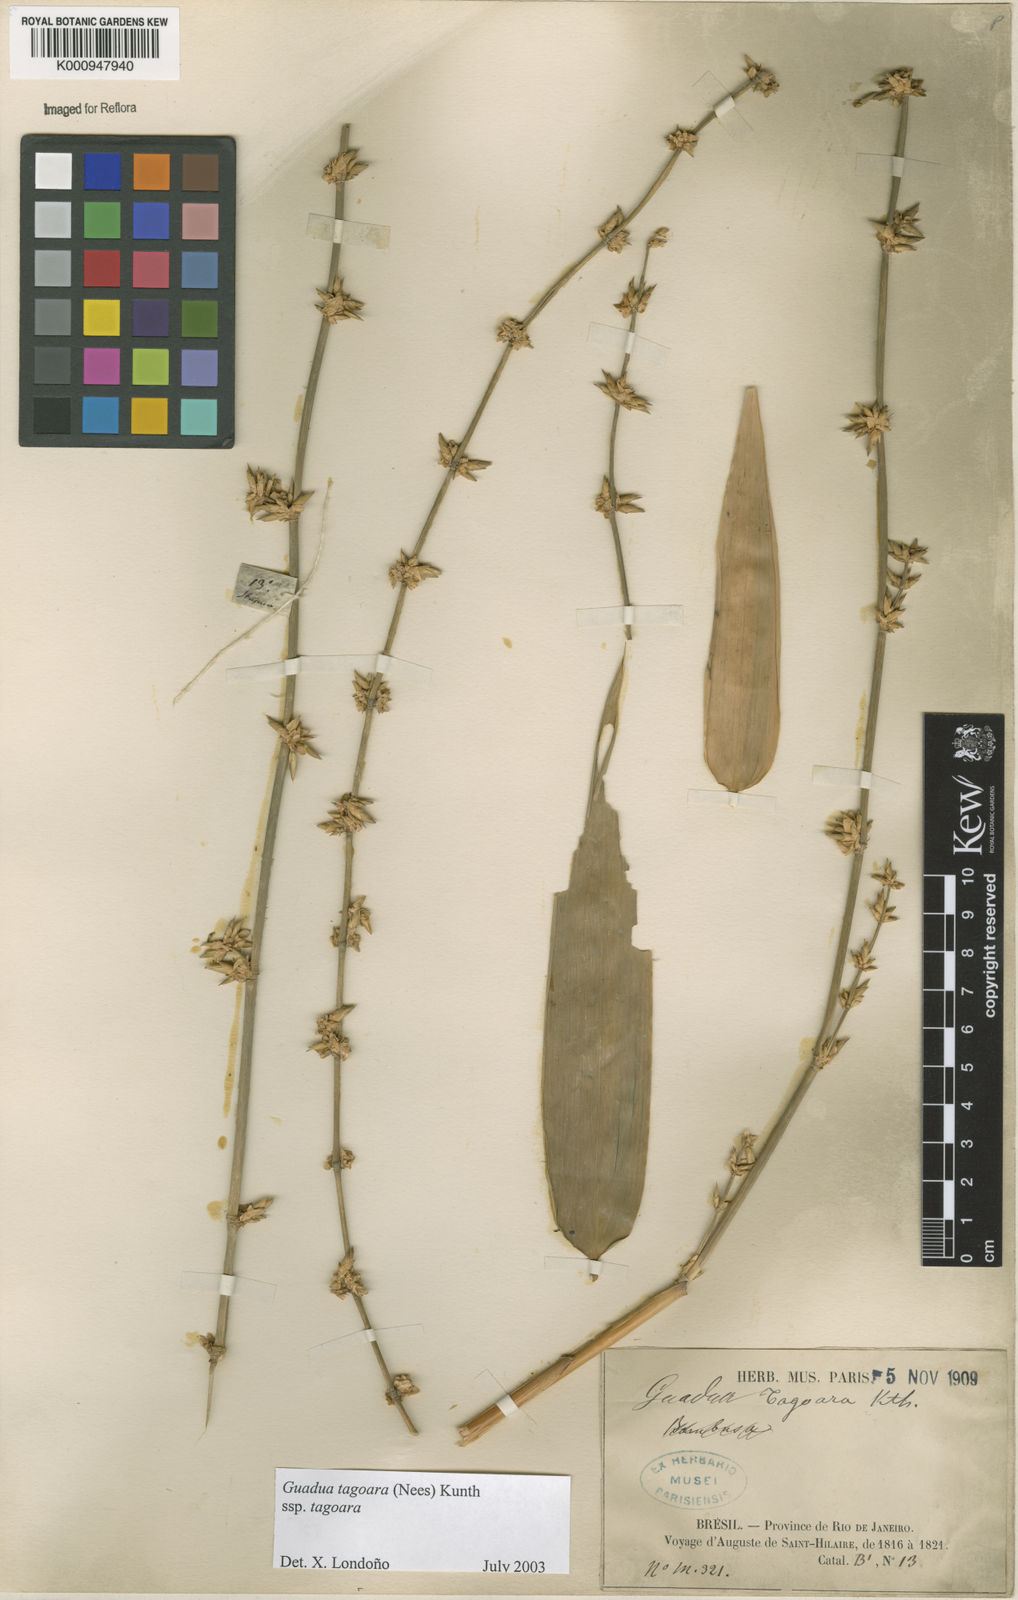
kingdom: Plantae
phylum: Tracheophyta
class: Liliopsida
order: Poales
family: Poaceae
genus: Guadua
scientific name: Guadua tagoara
